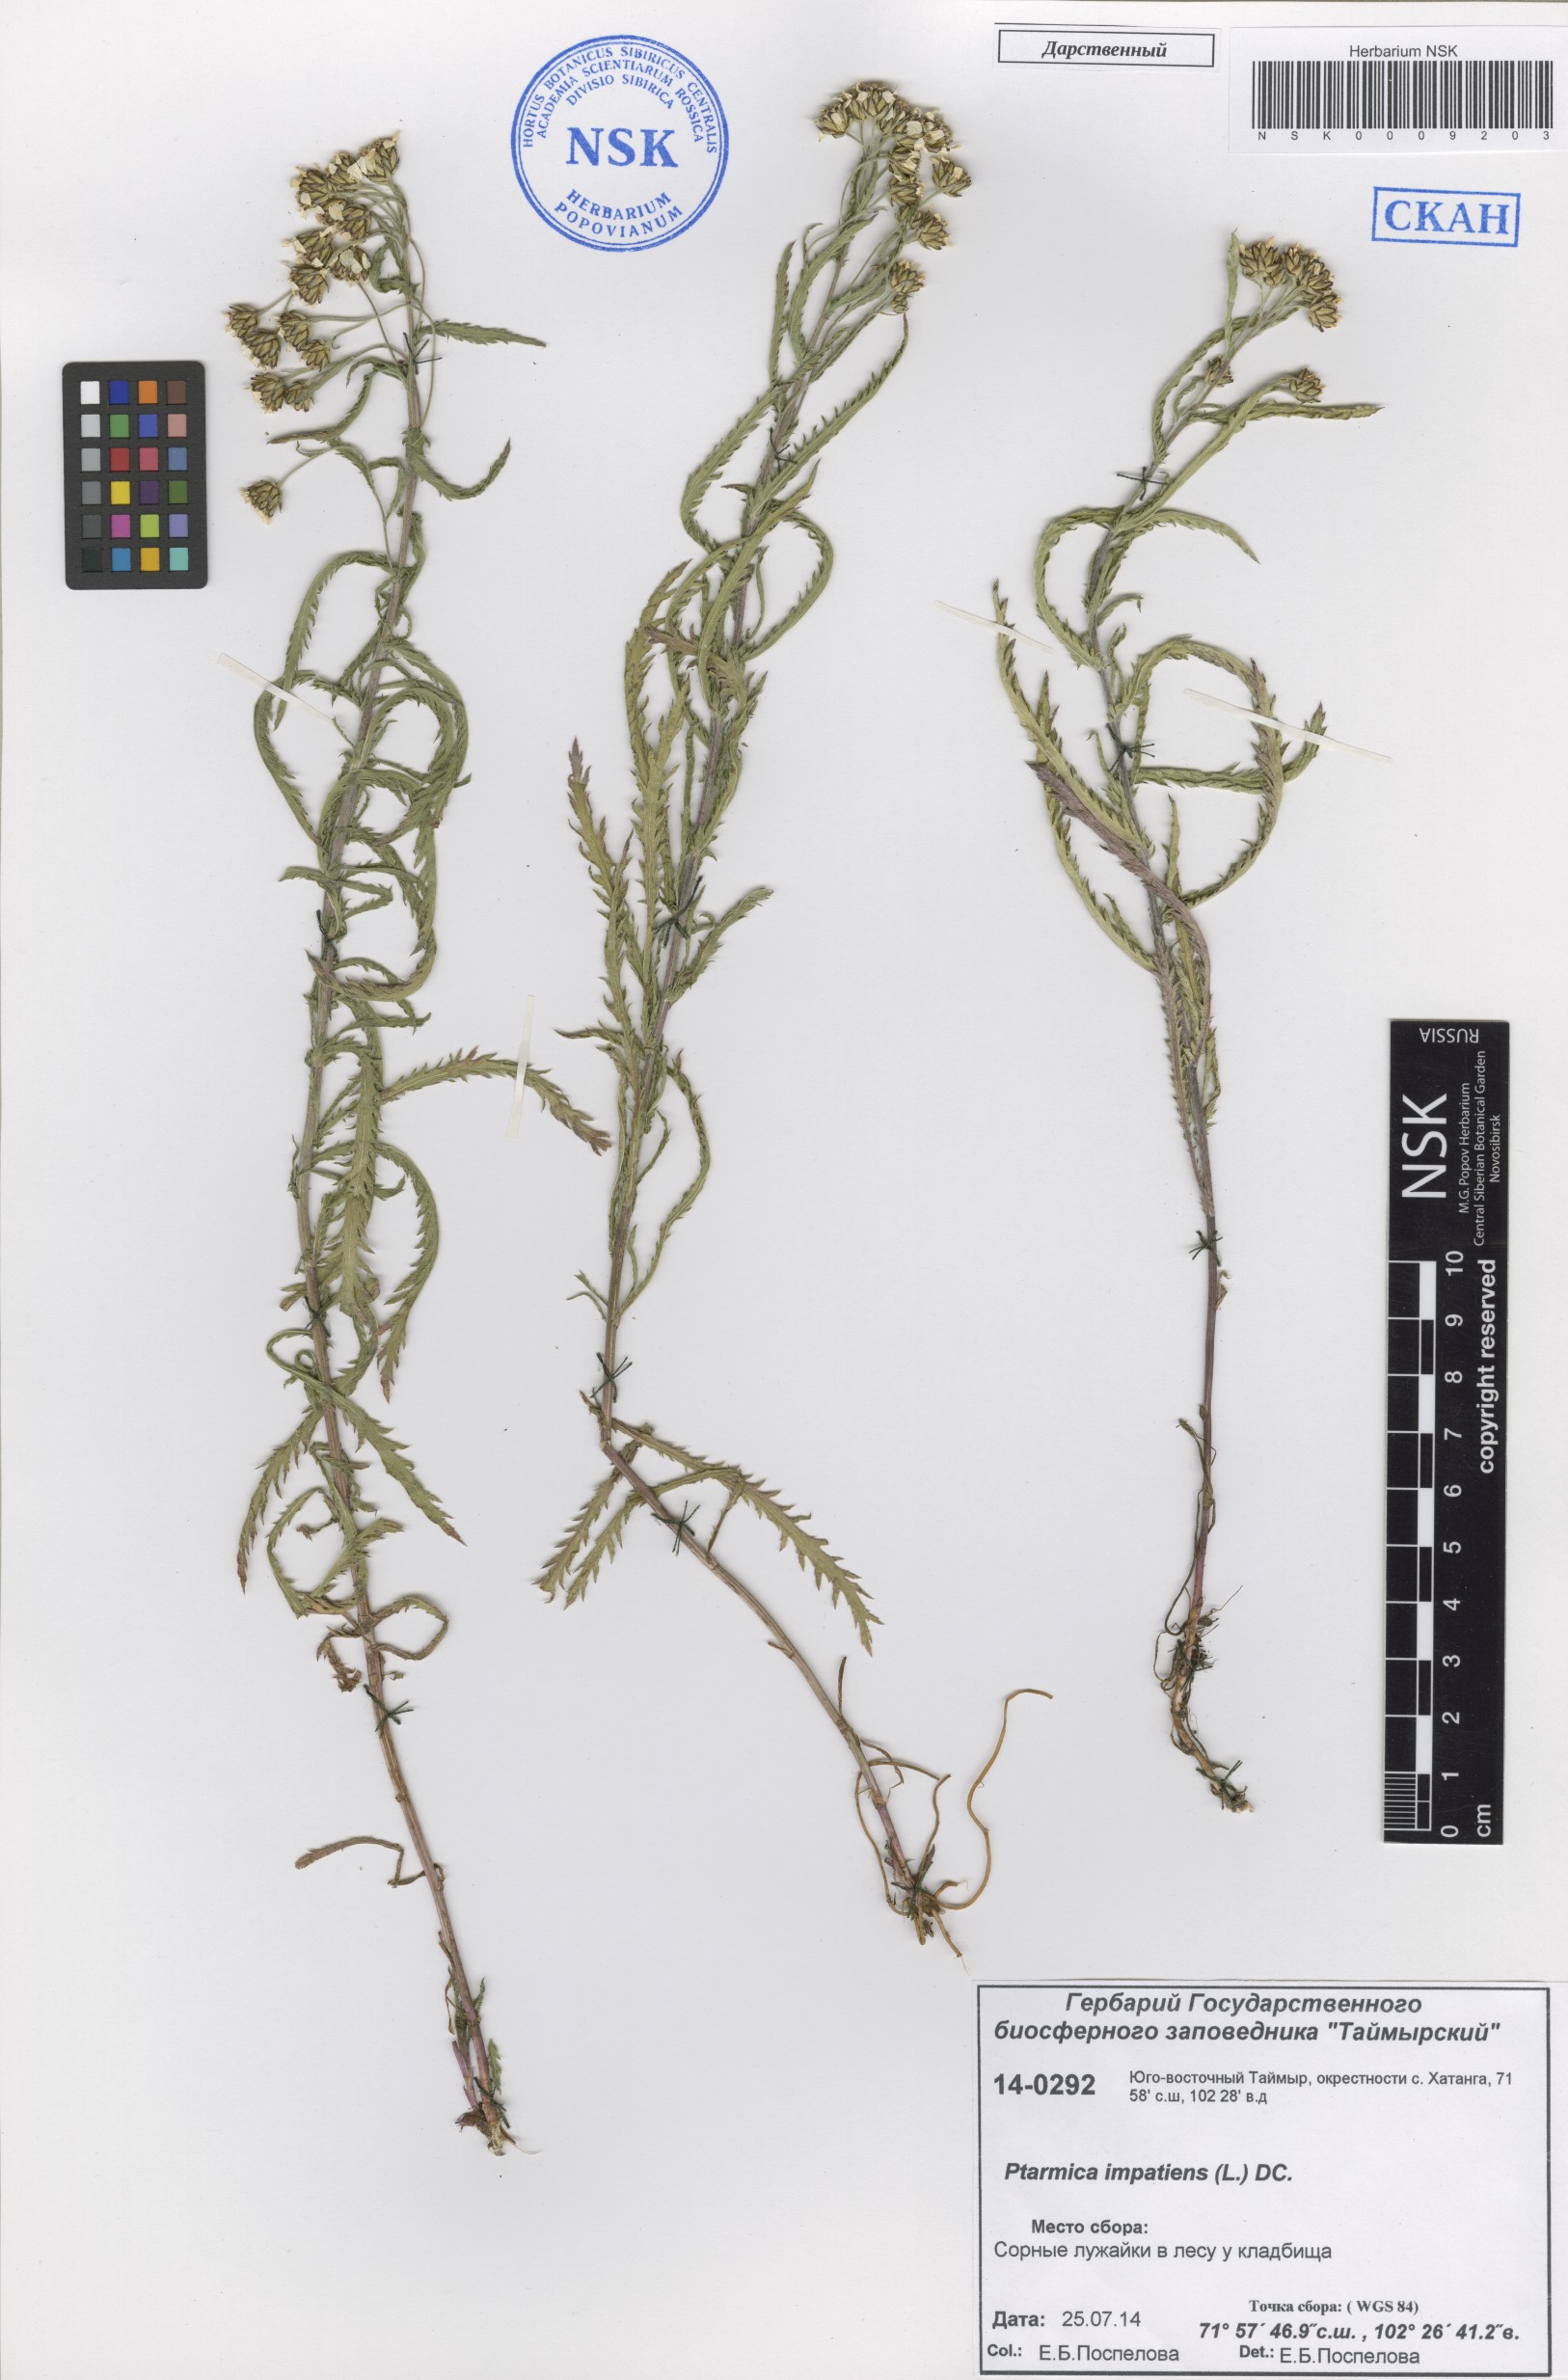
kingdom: Plantae
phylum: Tracheophyta
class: Magnoliopsida
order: Asterales
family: Asteraceae
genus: Achillea
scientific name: Achillea impatiens
